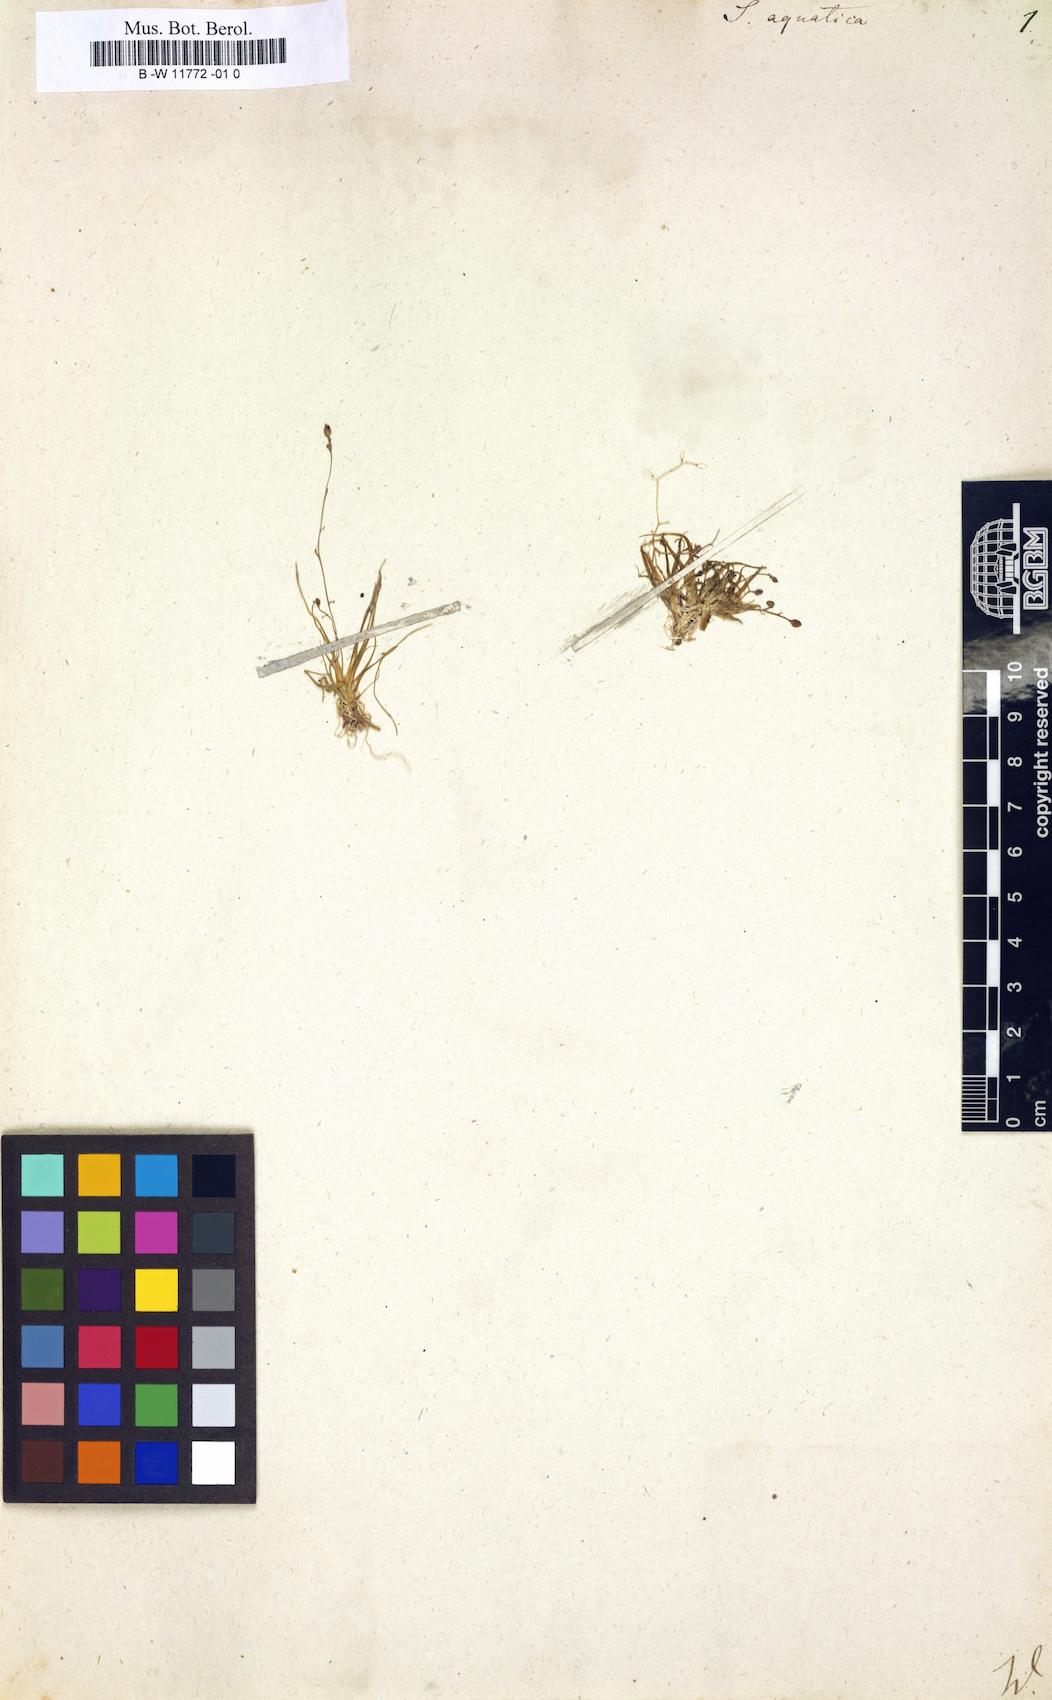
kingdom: Plantae
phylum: Tracheophyta
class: Magnoliopsida
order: Brassicales
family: Brassicaceae
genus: Subularia
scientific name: Subularia aquatica
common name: Awlwort
